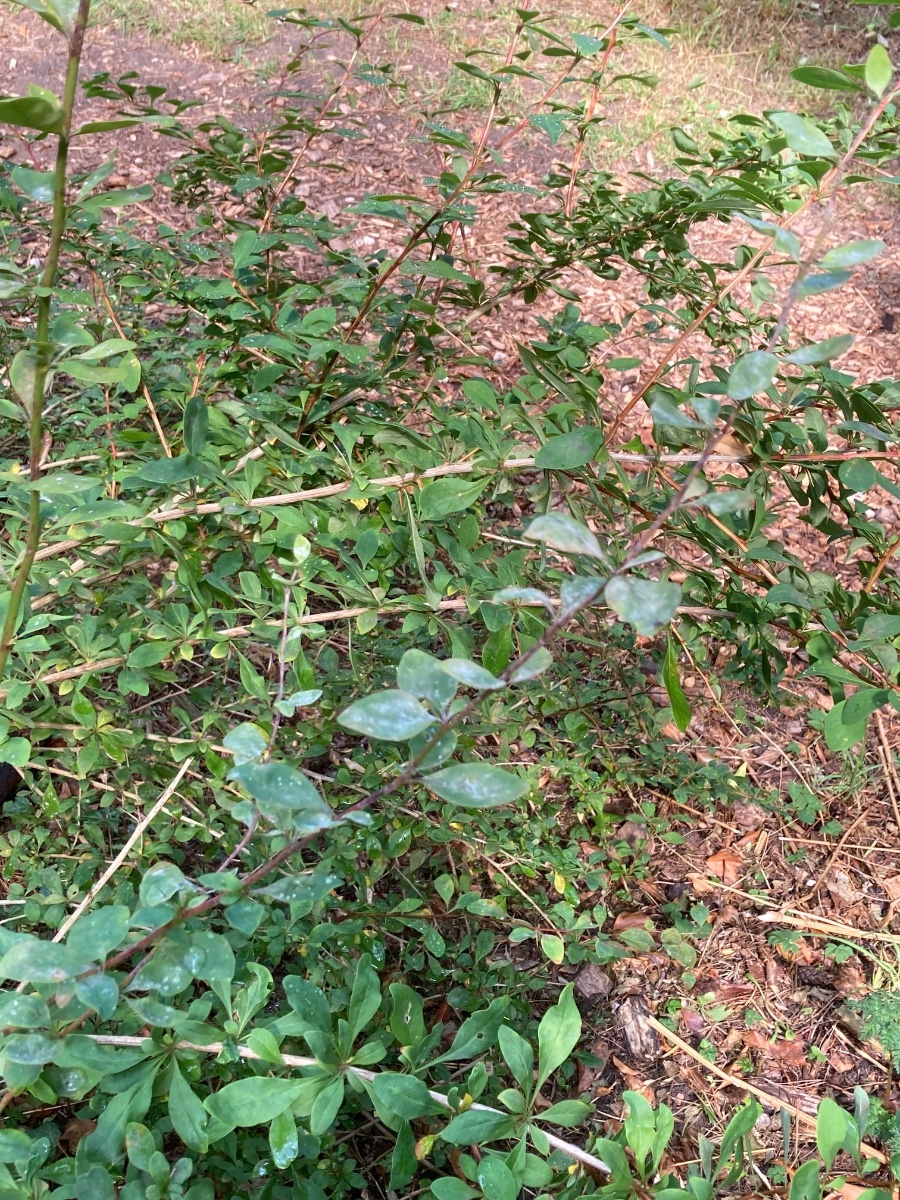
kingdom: Fungi
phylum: Ascomycota
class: Leotiomycetes
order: Helotiales
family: Erysiphaceae
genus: Erysiphe
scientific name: Erysiphe berberidis
